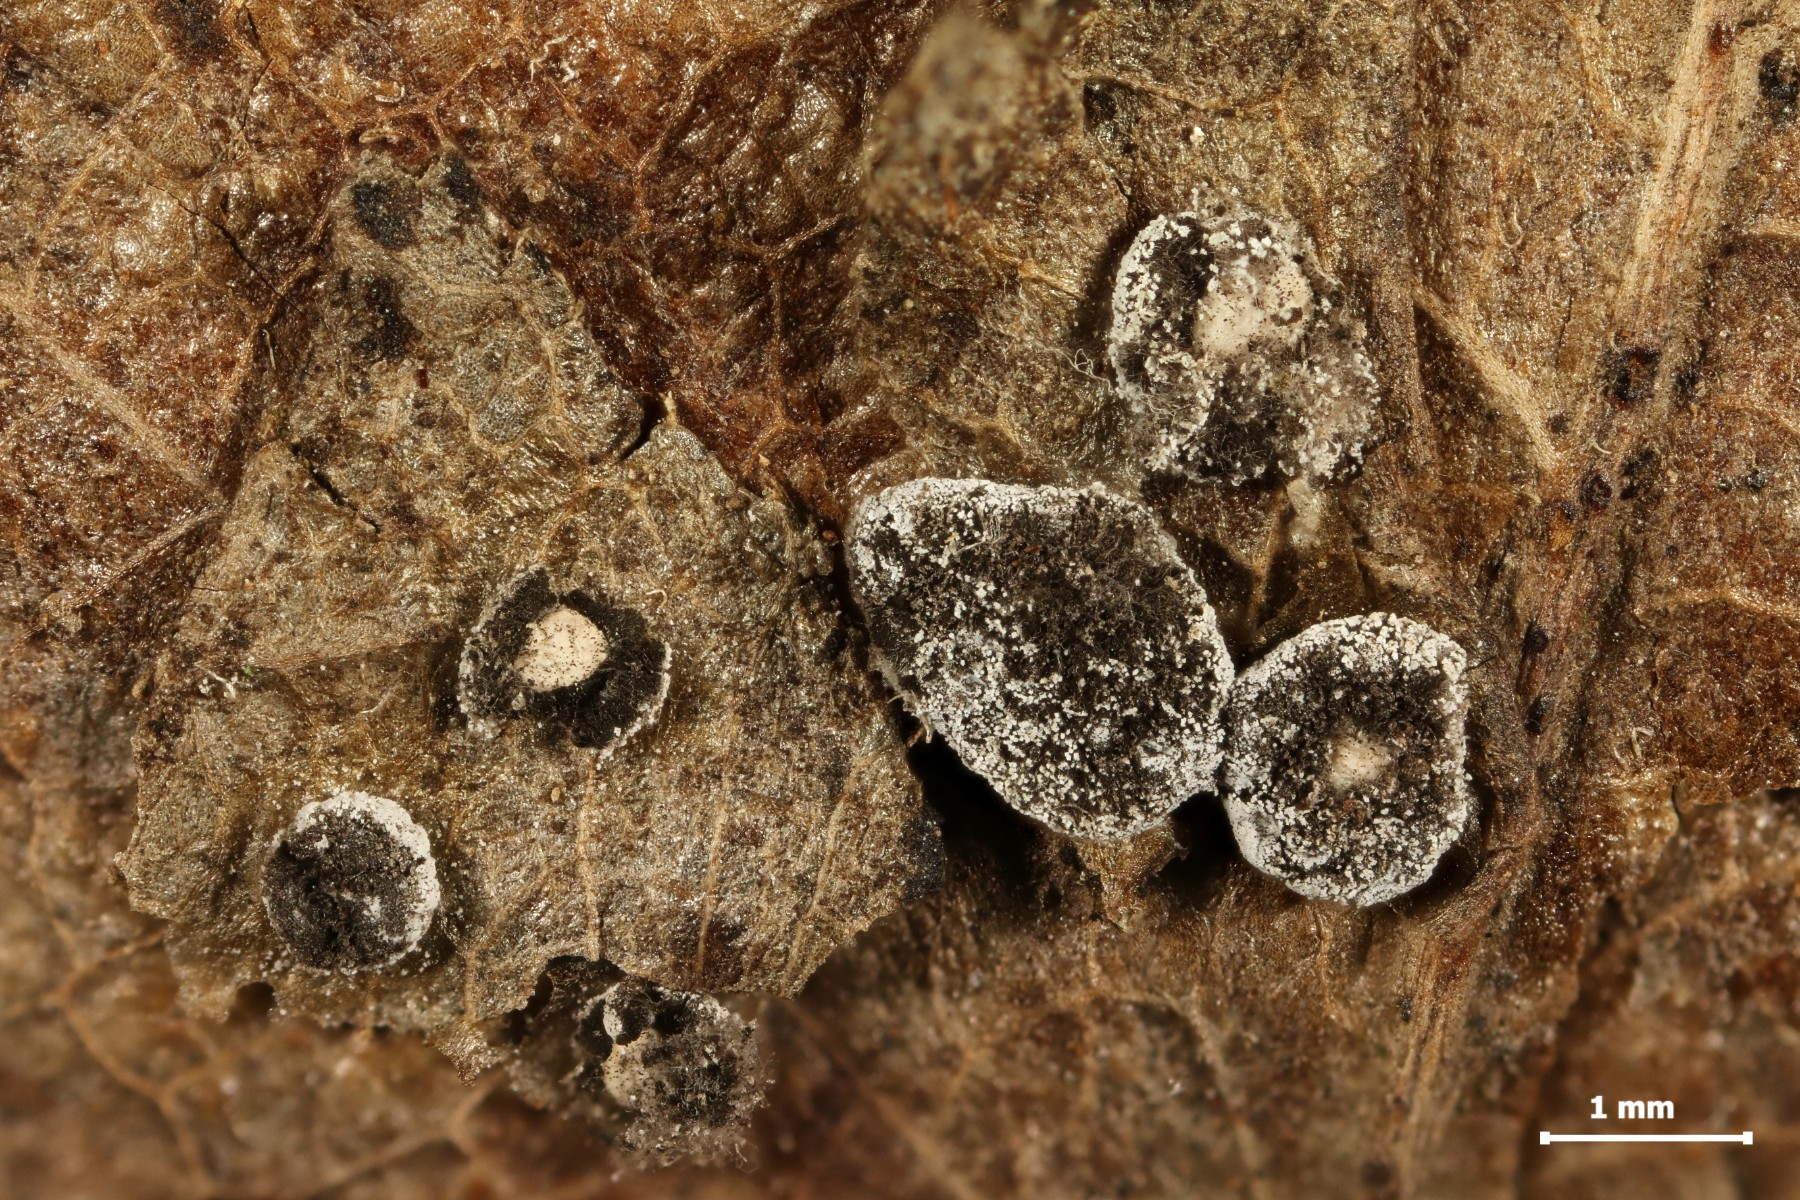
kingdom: Protozoa
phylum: Mycetozoa
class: Myxomycetes
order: Physarales
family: Didymiaceae
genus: Didymium
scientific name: Didymium squamulosum
